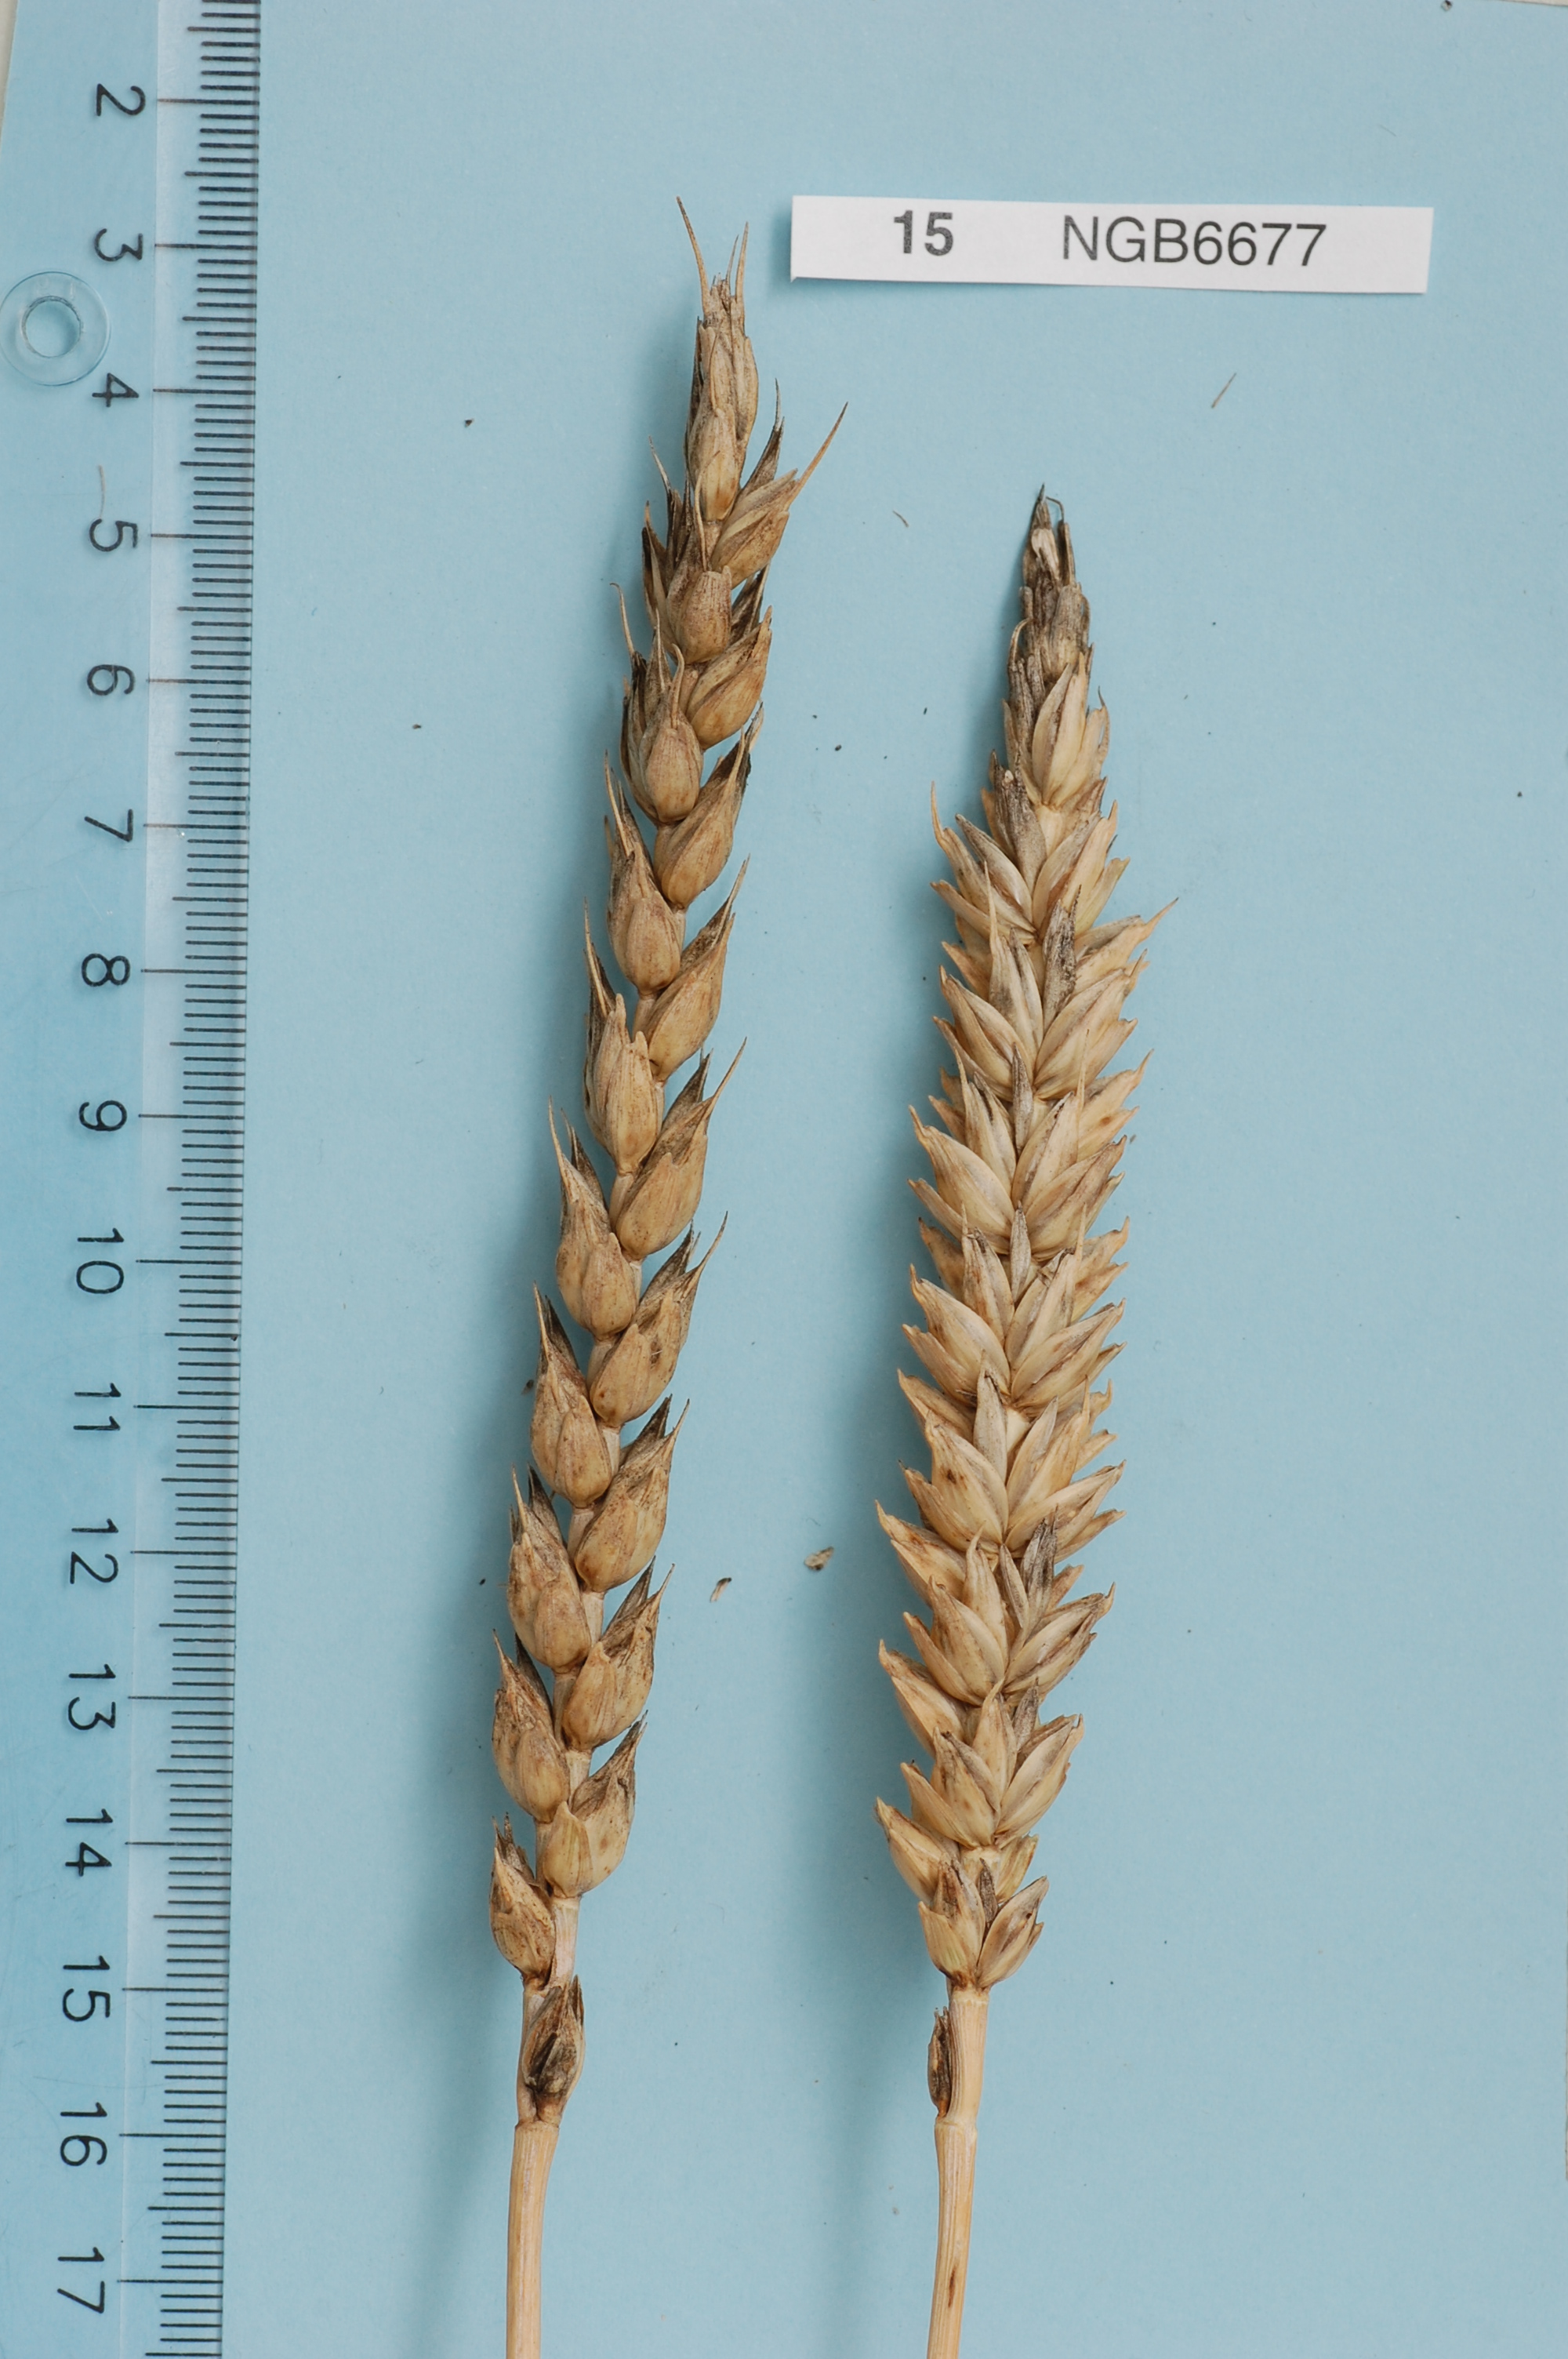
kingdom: Plantae
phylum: Tracheophyta
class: Liliopsida
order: Poales
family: Poaceae
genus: Triticum
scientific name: Triticum aestivum
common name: Common wheat
